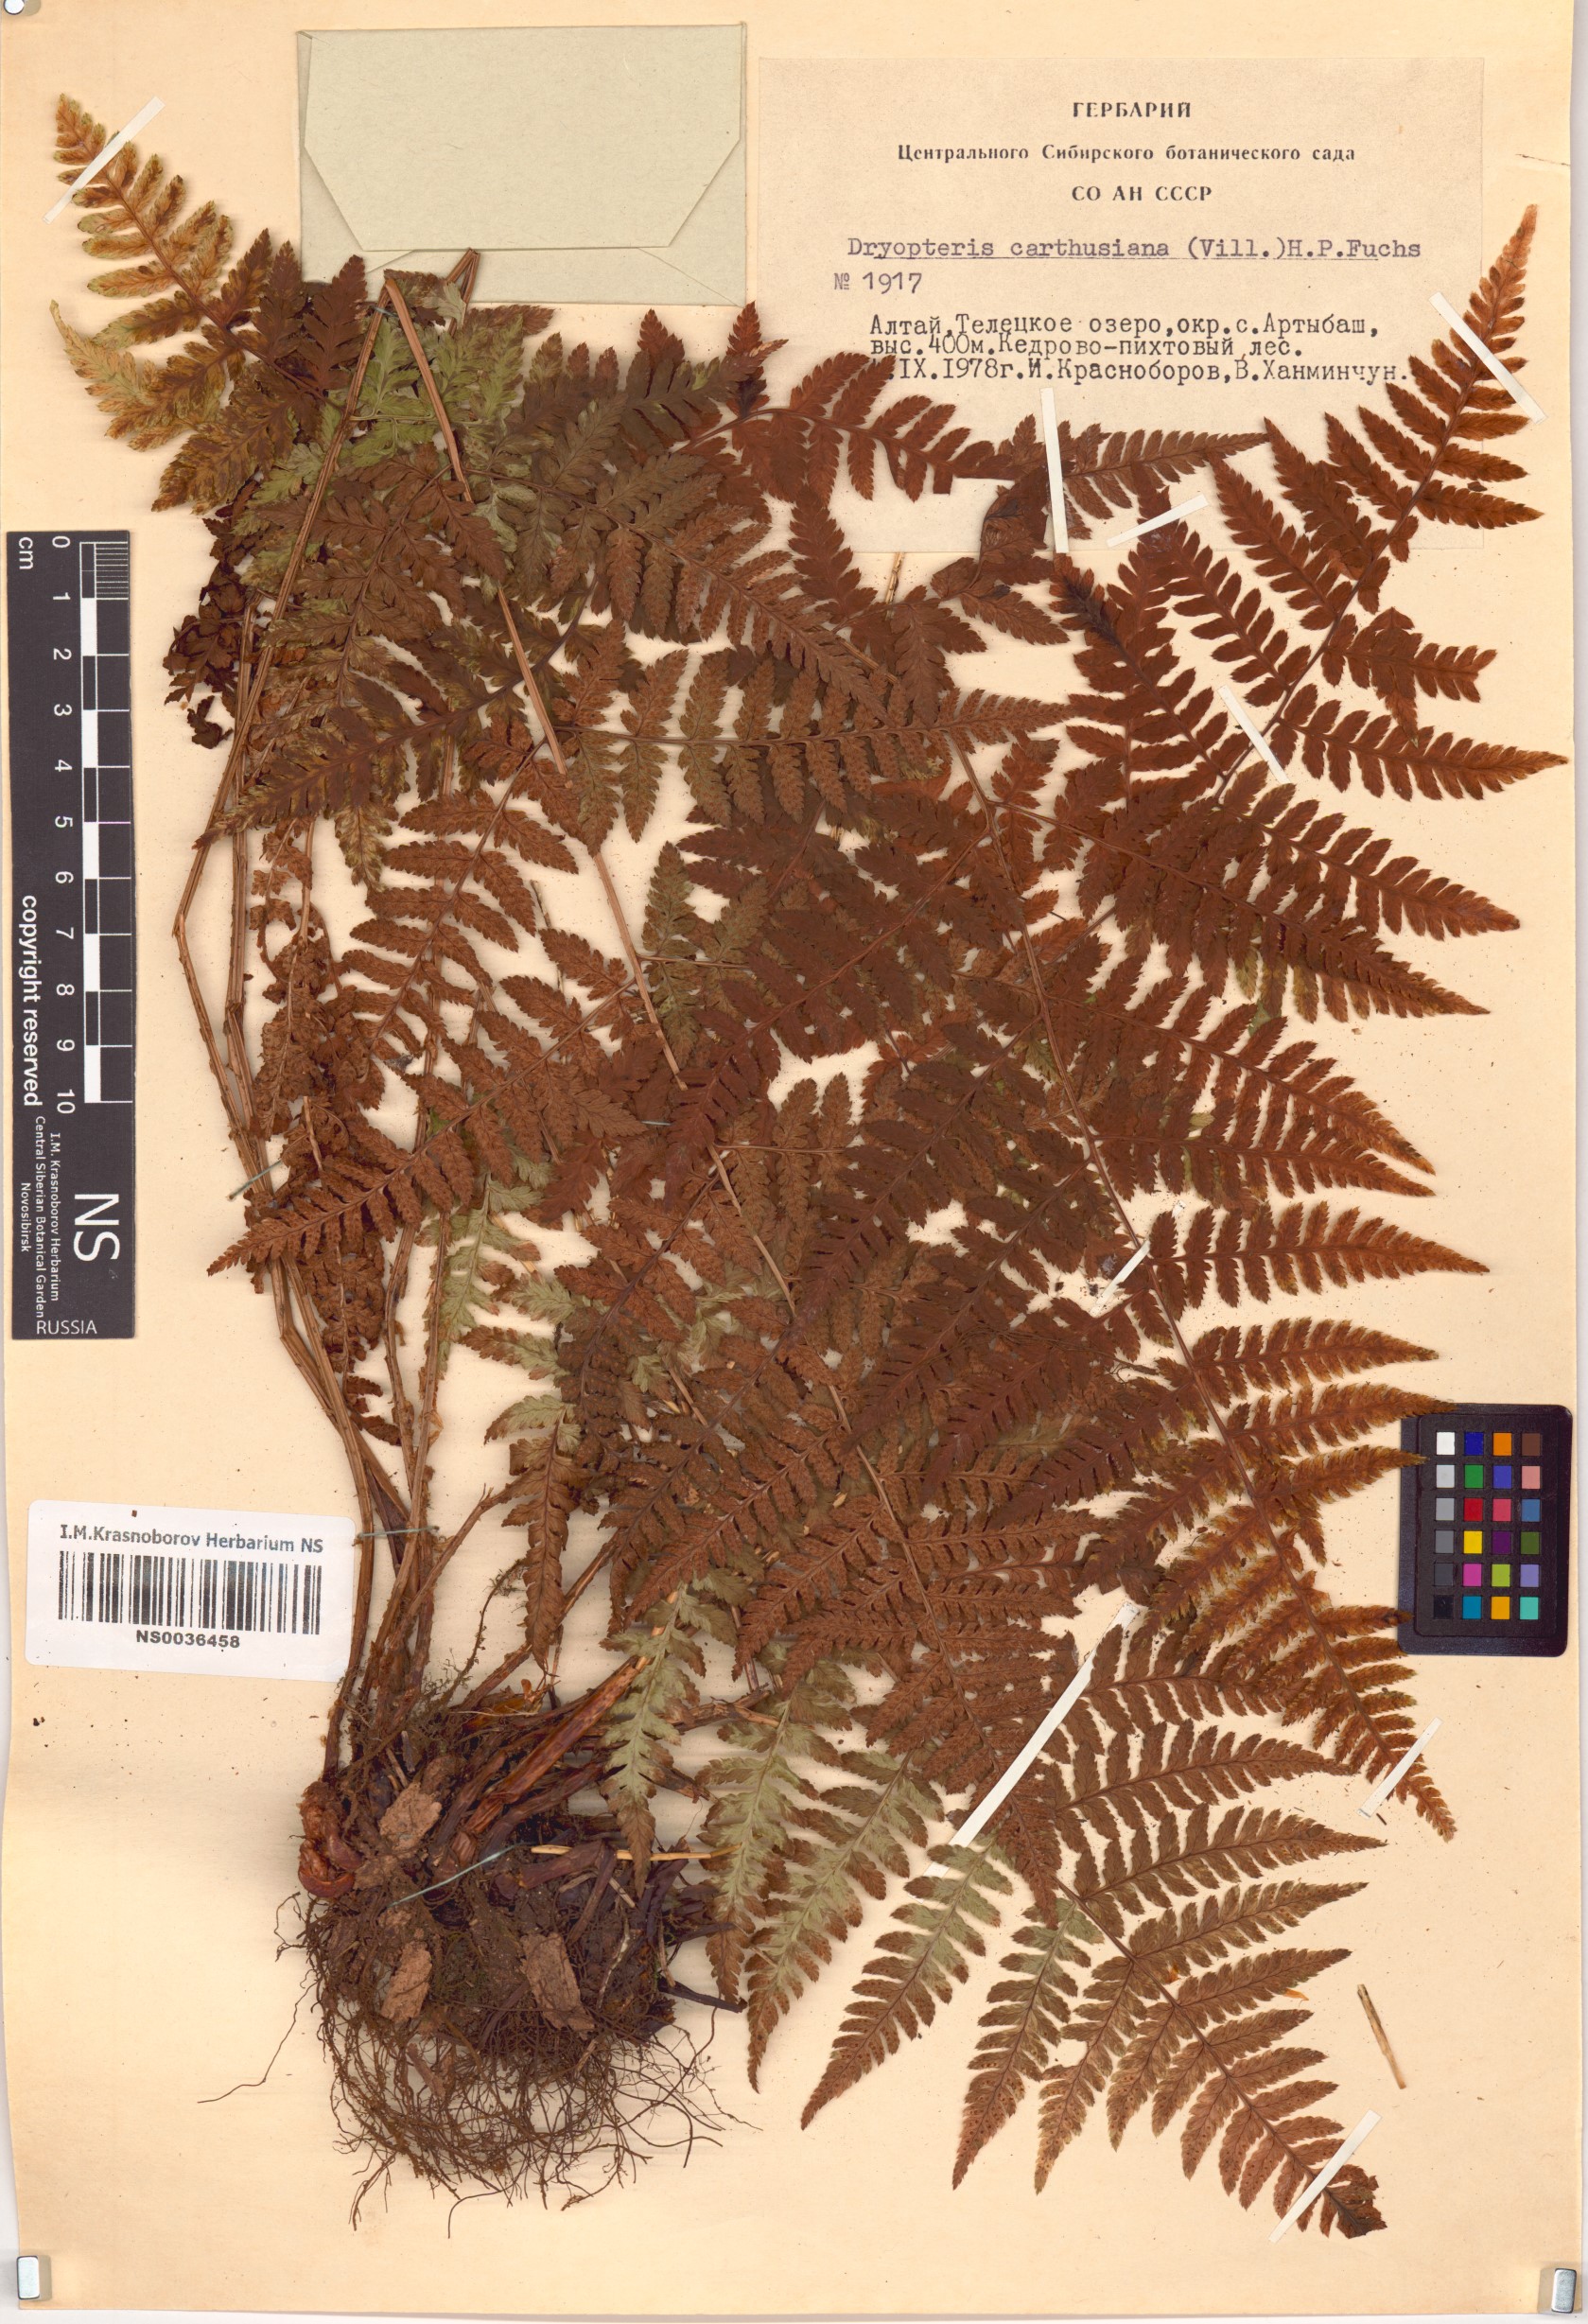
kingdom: Plantae
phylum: Tracheophyta
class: Polypodiopsida
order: Polypodiales
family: Dryopteridaceae
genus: Dryopteris
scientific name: Dryopteris carthusiana
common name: Narrow buckler-fern
